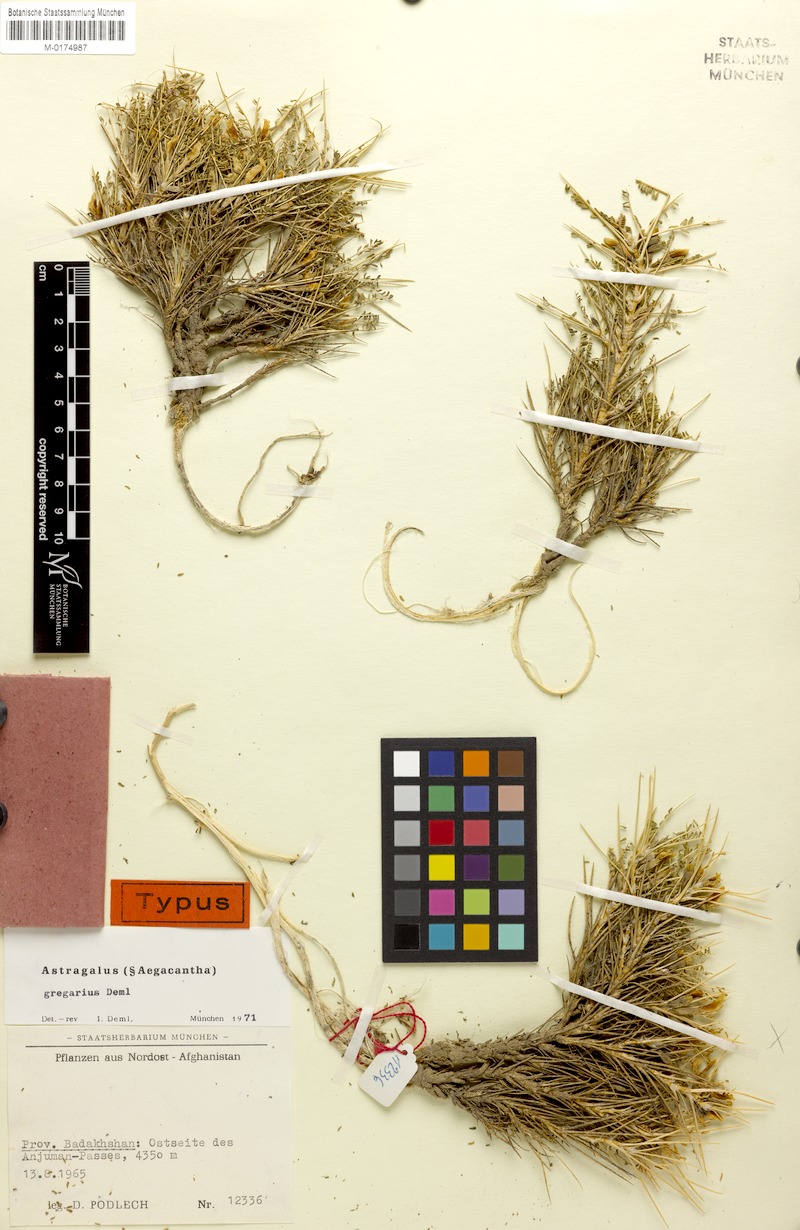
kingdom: Plantae
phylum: Tracheophyta
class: Magnoliopsida
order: Fabales
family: Fabaceae
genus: Astragalus
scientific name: Astragalus gregarius
